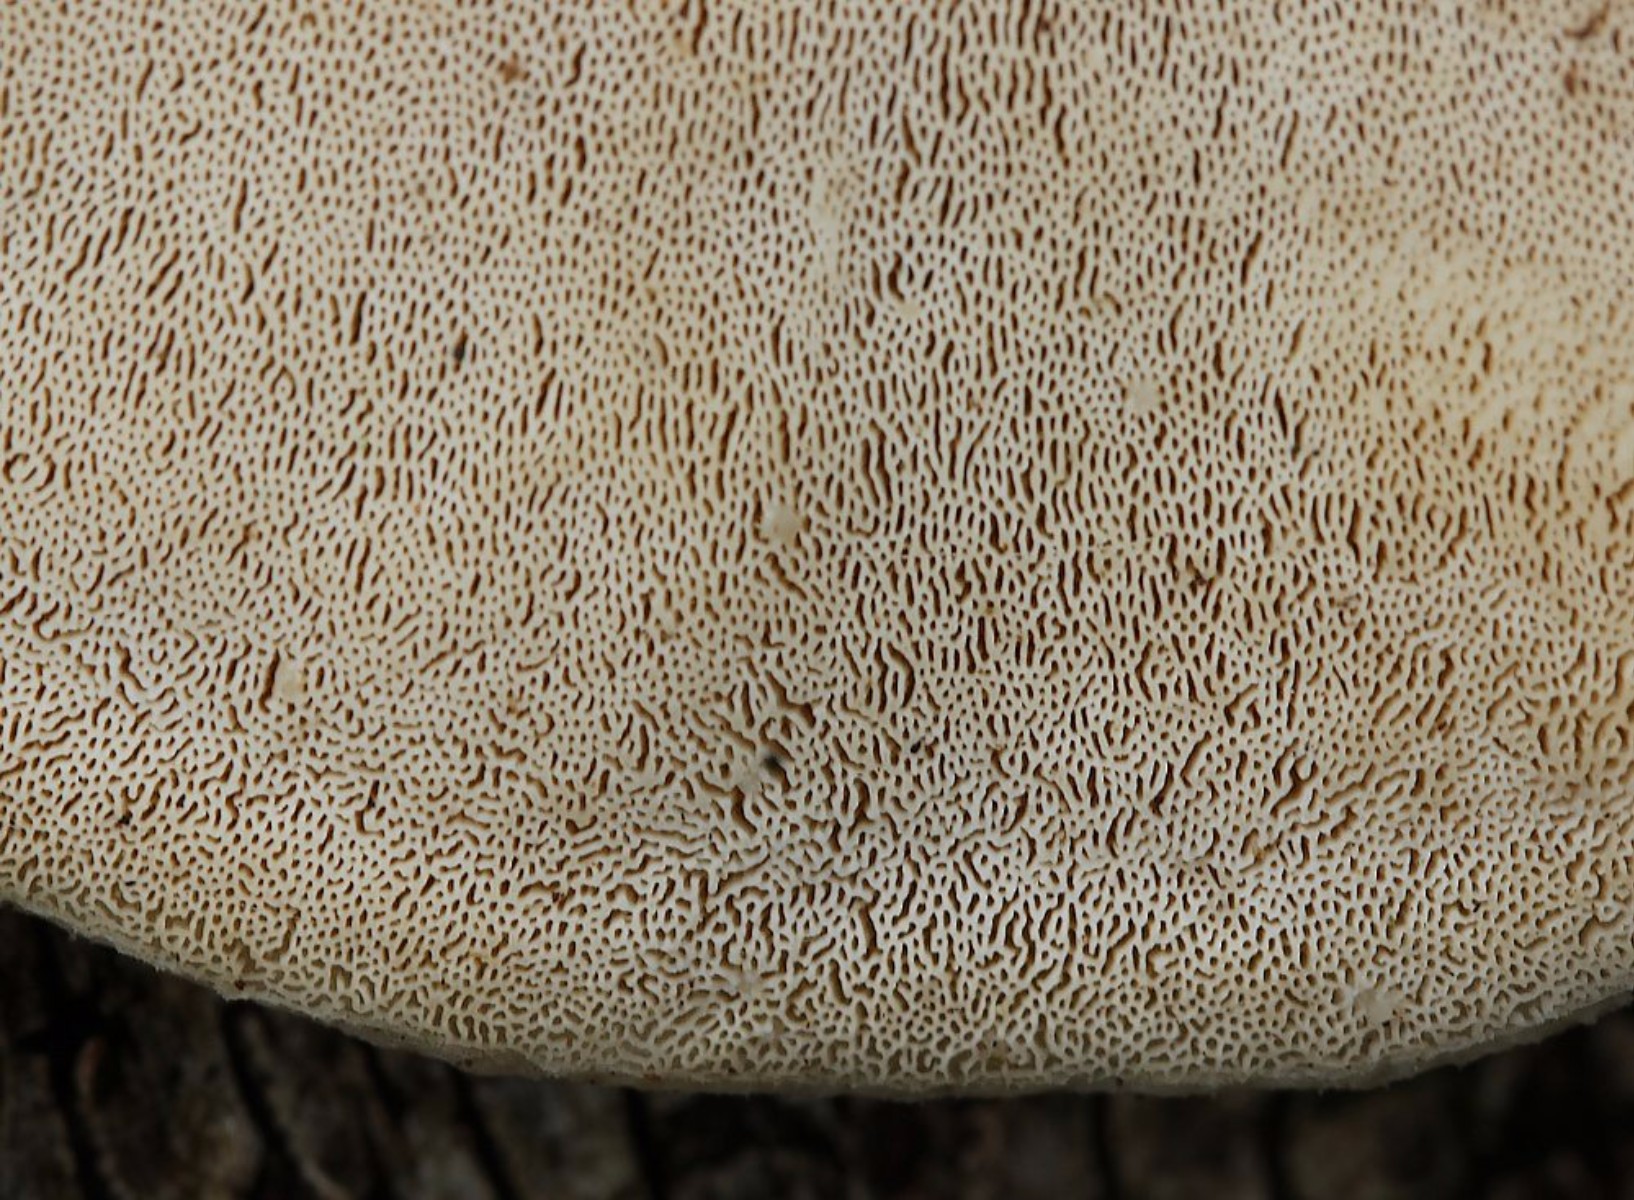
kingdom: Fungi
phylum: Basidiomycota
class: Agaricomycetes
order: Russulales
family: Stereaceae
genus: Stereum
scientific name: Stereum hirsutum
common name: håret lædersvamp
